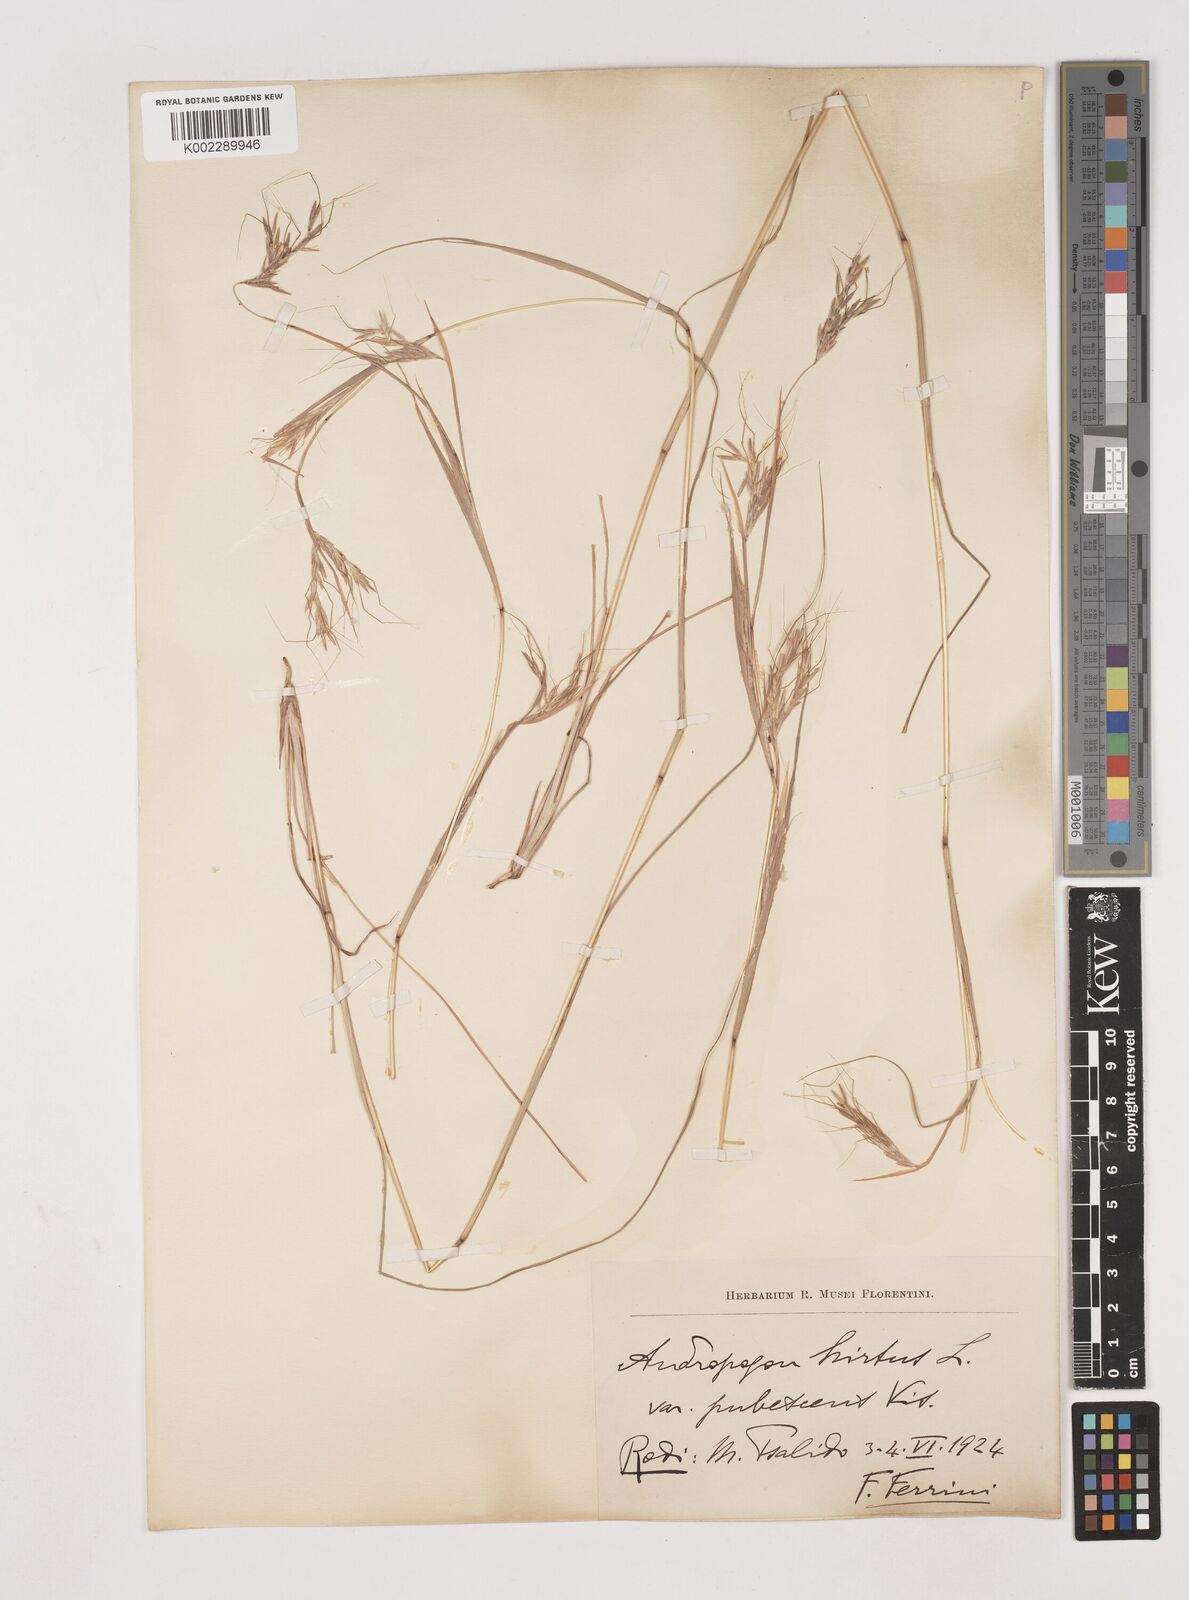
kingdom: Plantae
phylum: Tracheophyta
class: Liliopsida
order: Poales
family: Poaceae
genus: Hyparrhenia
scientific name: Hyparrhenia hirta
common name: Thatching grass
